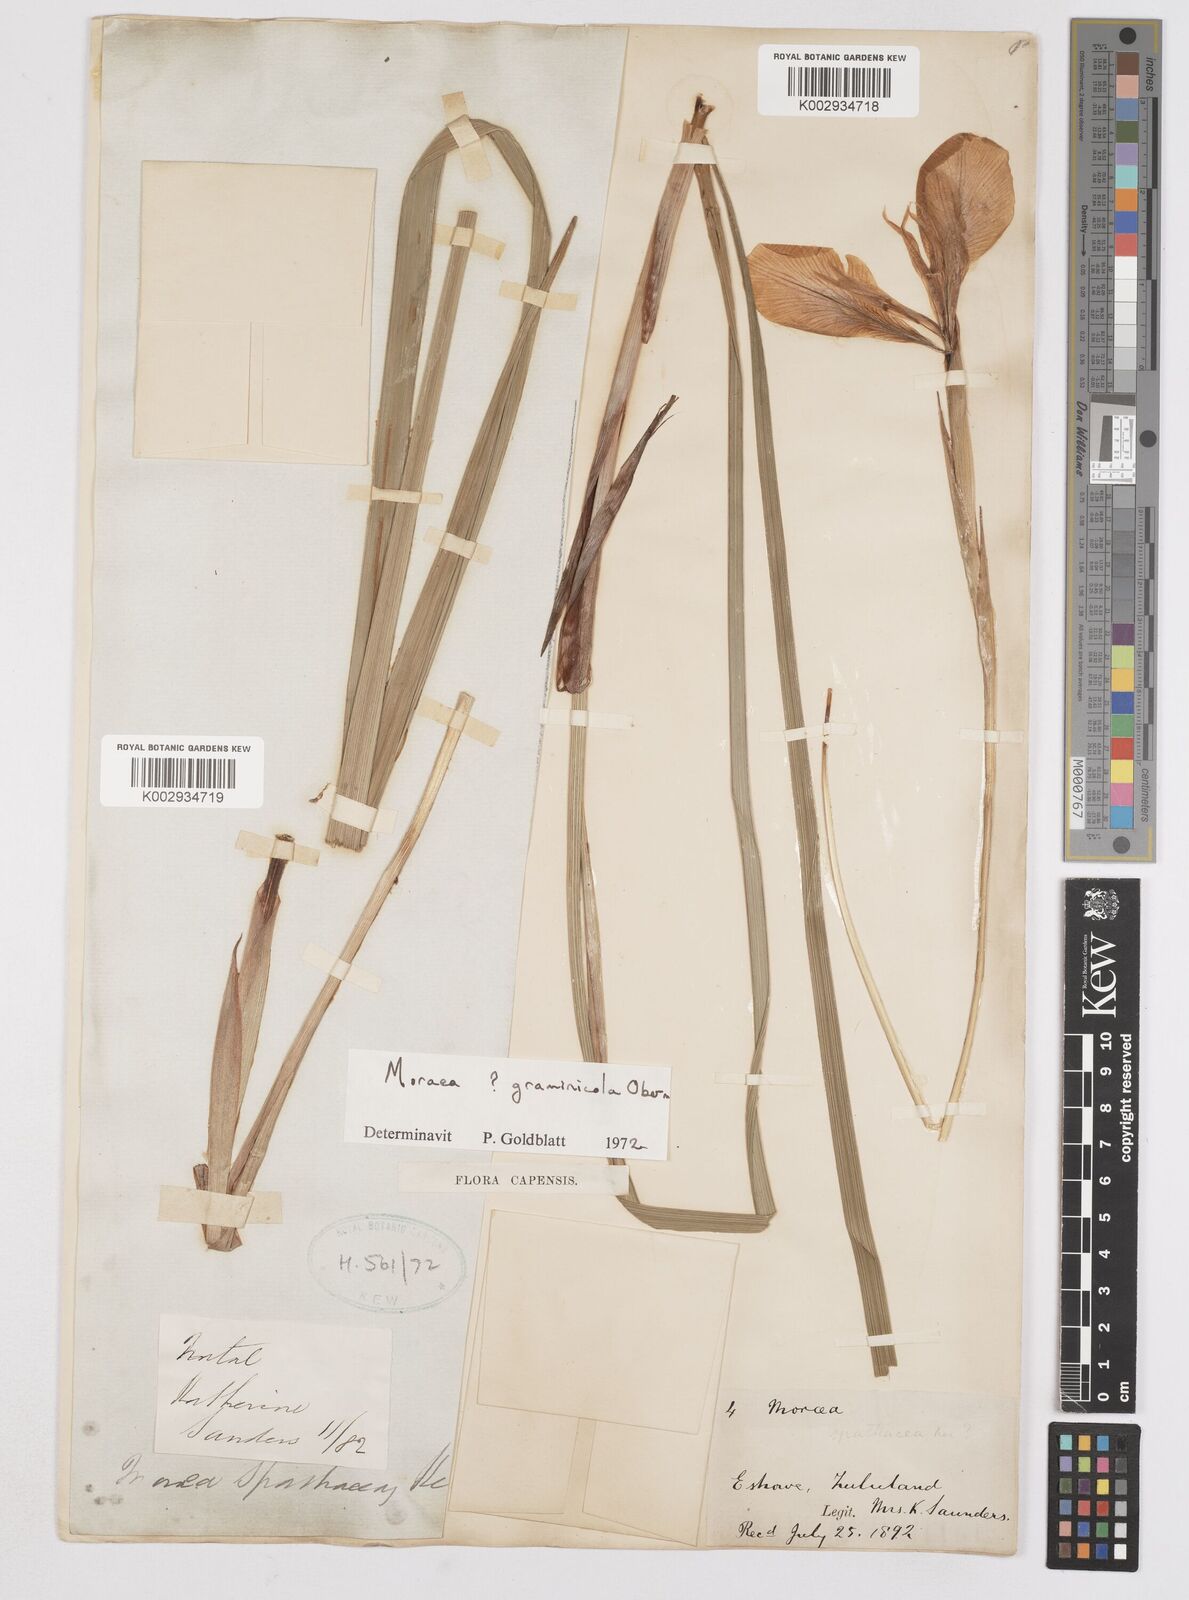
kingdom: Plantae
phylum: Tracheophyta
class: Liliopsida
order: Asparagales
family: Iridaceae
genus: Moraea
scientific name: Moraea graminicola
